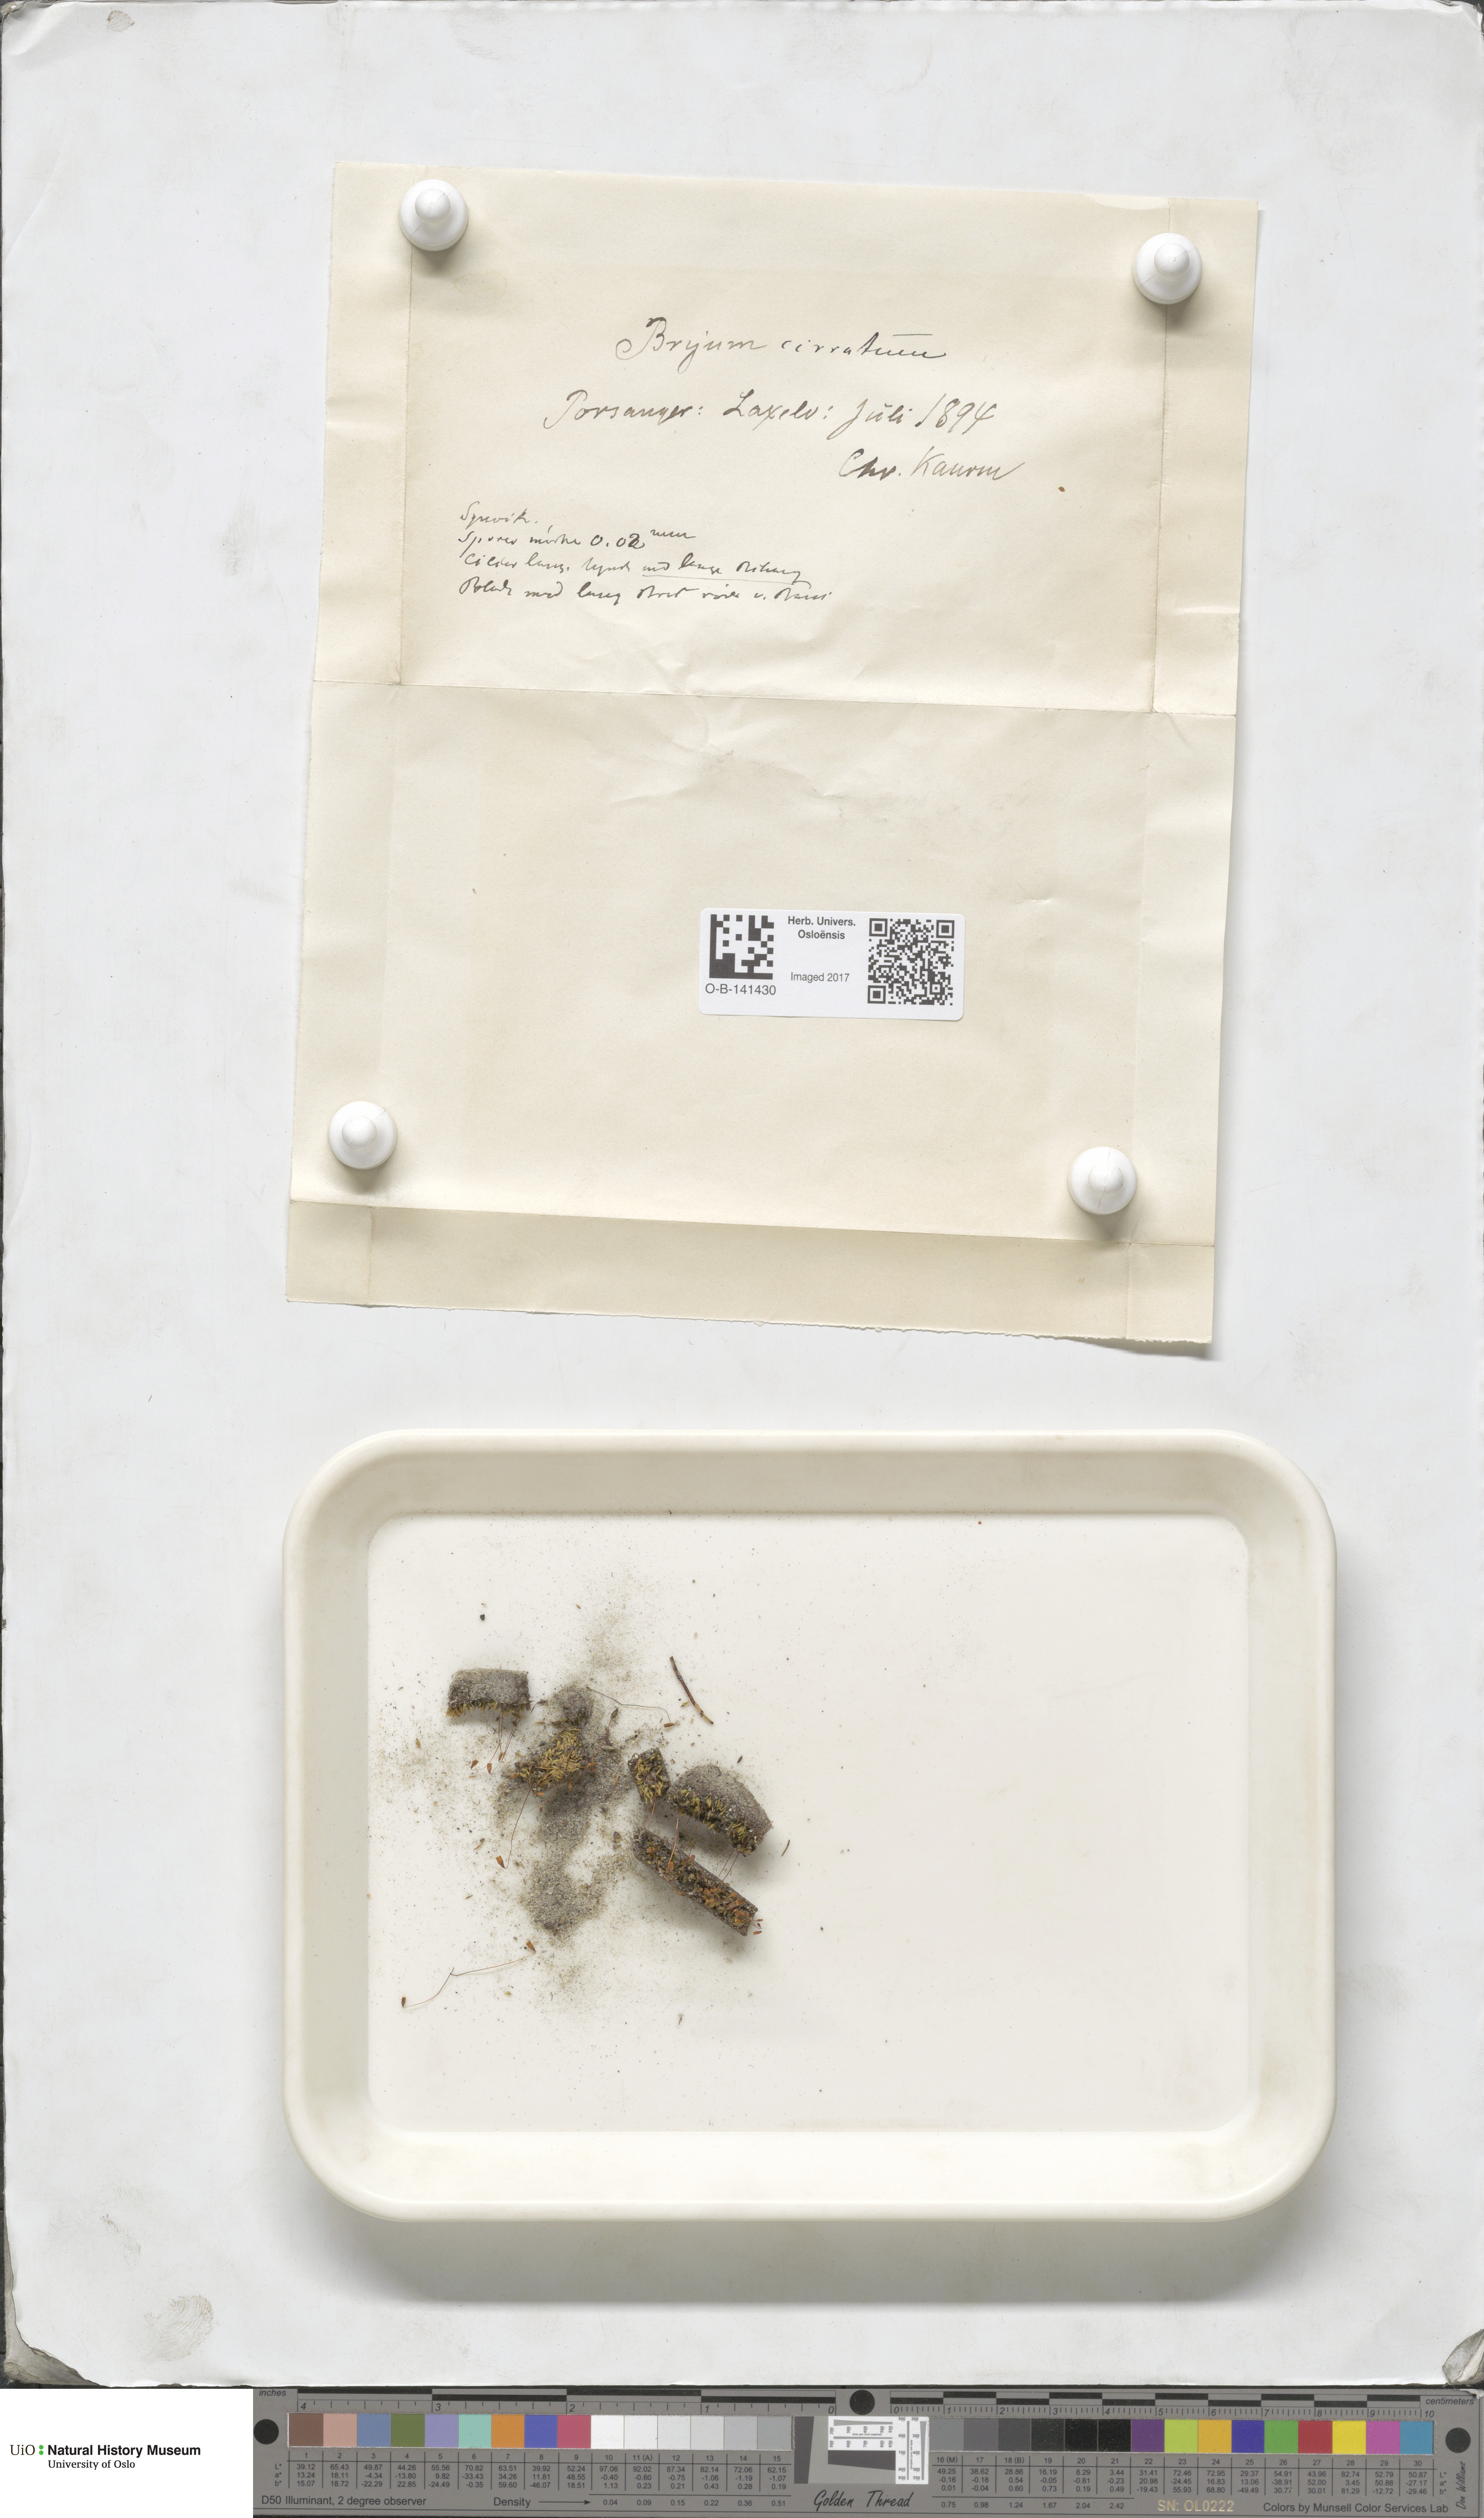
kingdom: Plantae
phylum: Bryophyta
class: Bryopsida
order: Bryales
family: Bryaceae
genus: Ptychostomum
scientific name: Ptychostomum pallescens
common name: Tall-clustered thread-moss
